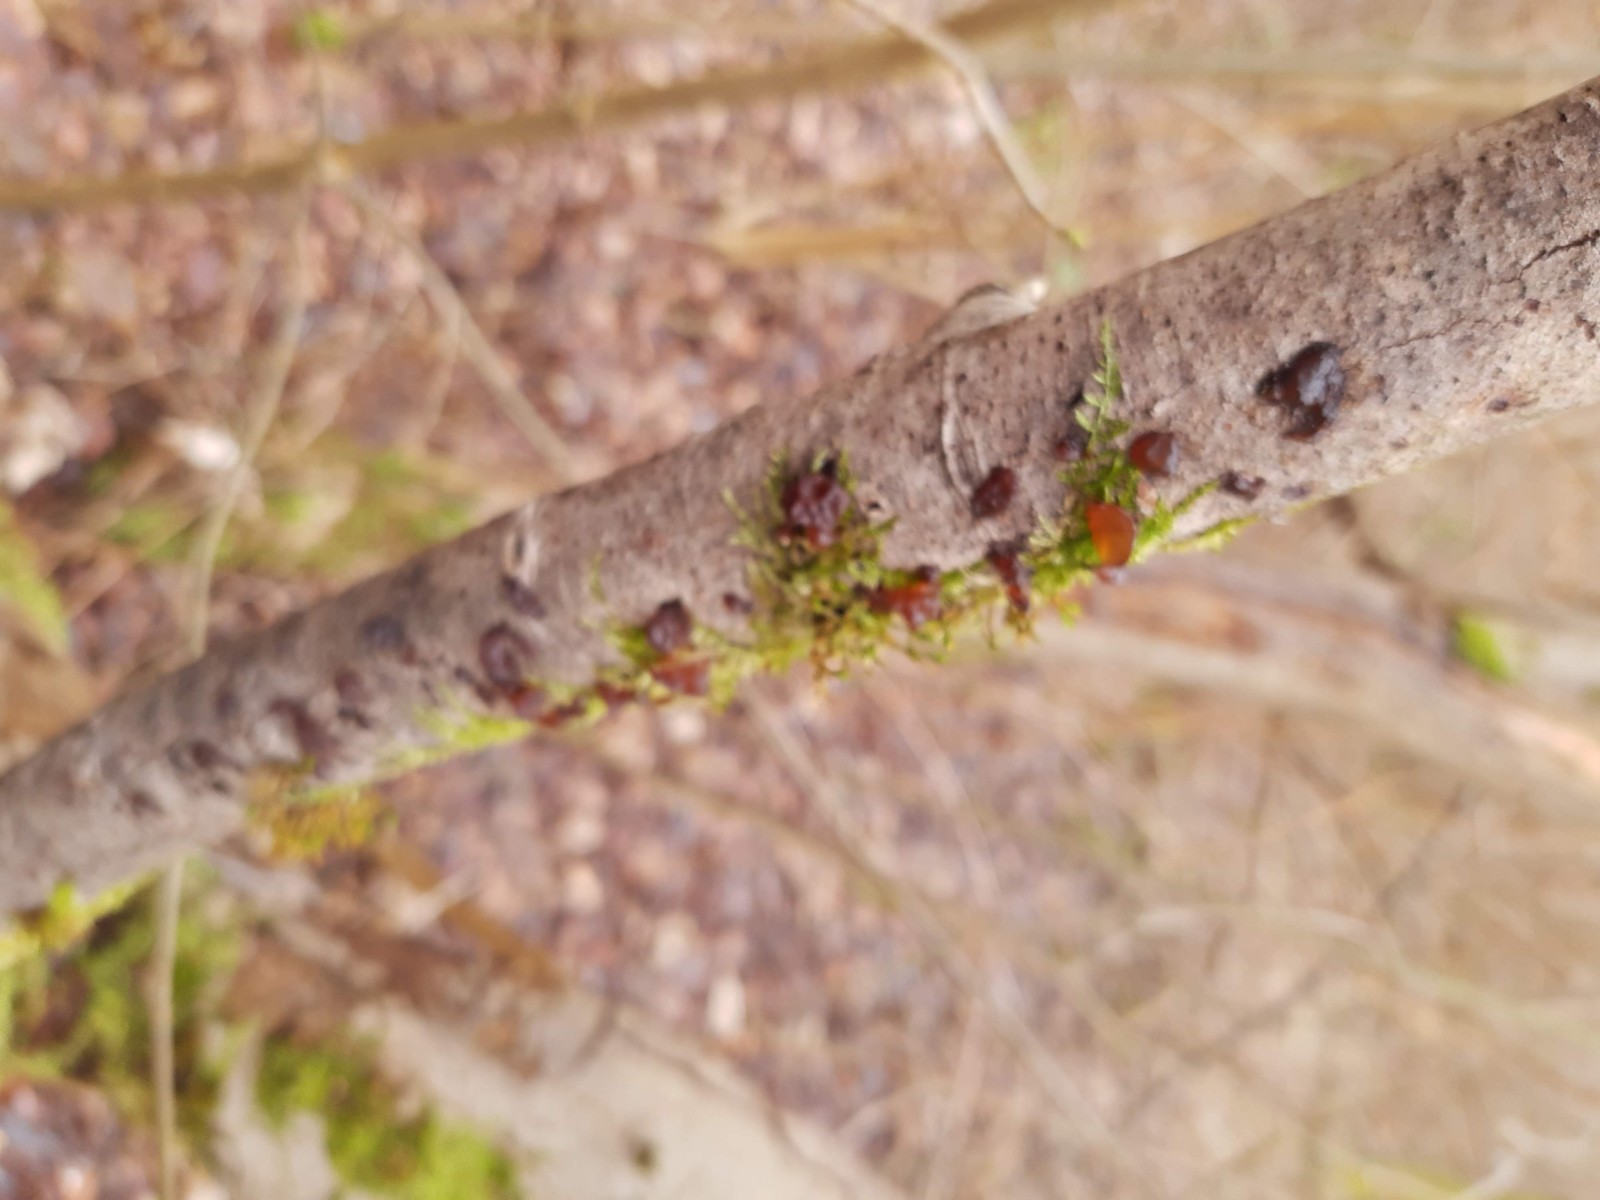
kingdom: Fungi
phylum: Basidiomycota
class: Agaricomycetes
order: Auriculariales
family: Auriculariaceae
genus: Exidia
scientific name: Exidia recisa
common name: pile-bævretop
